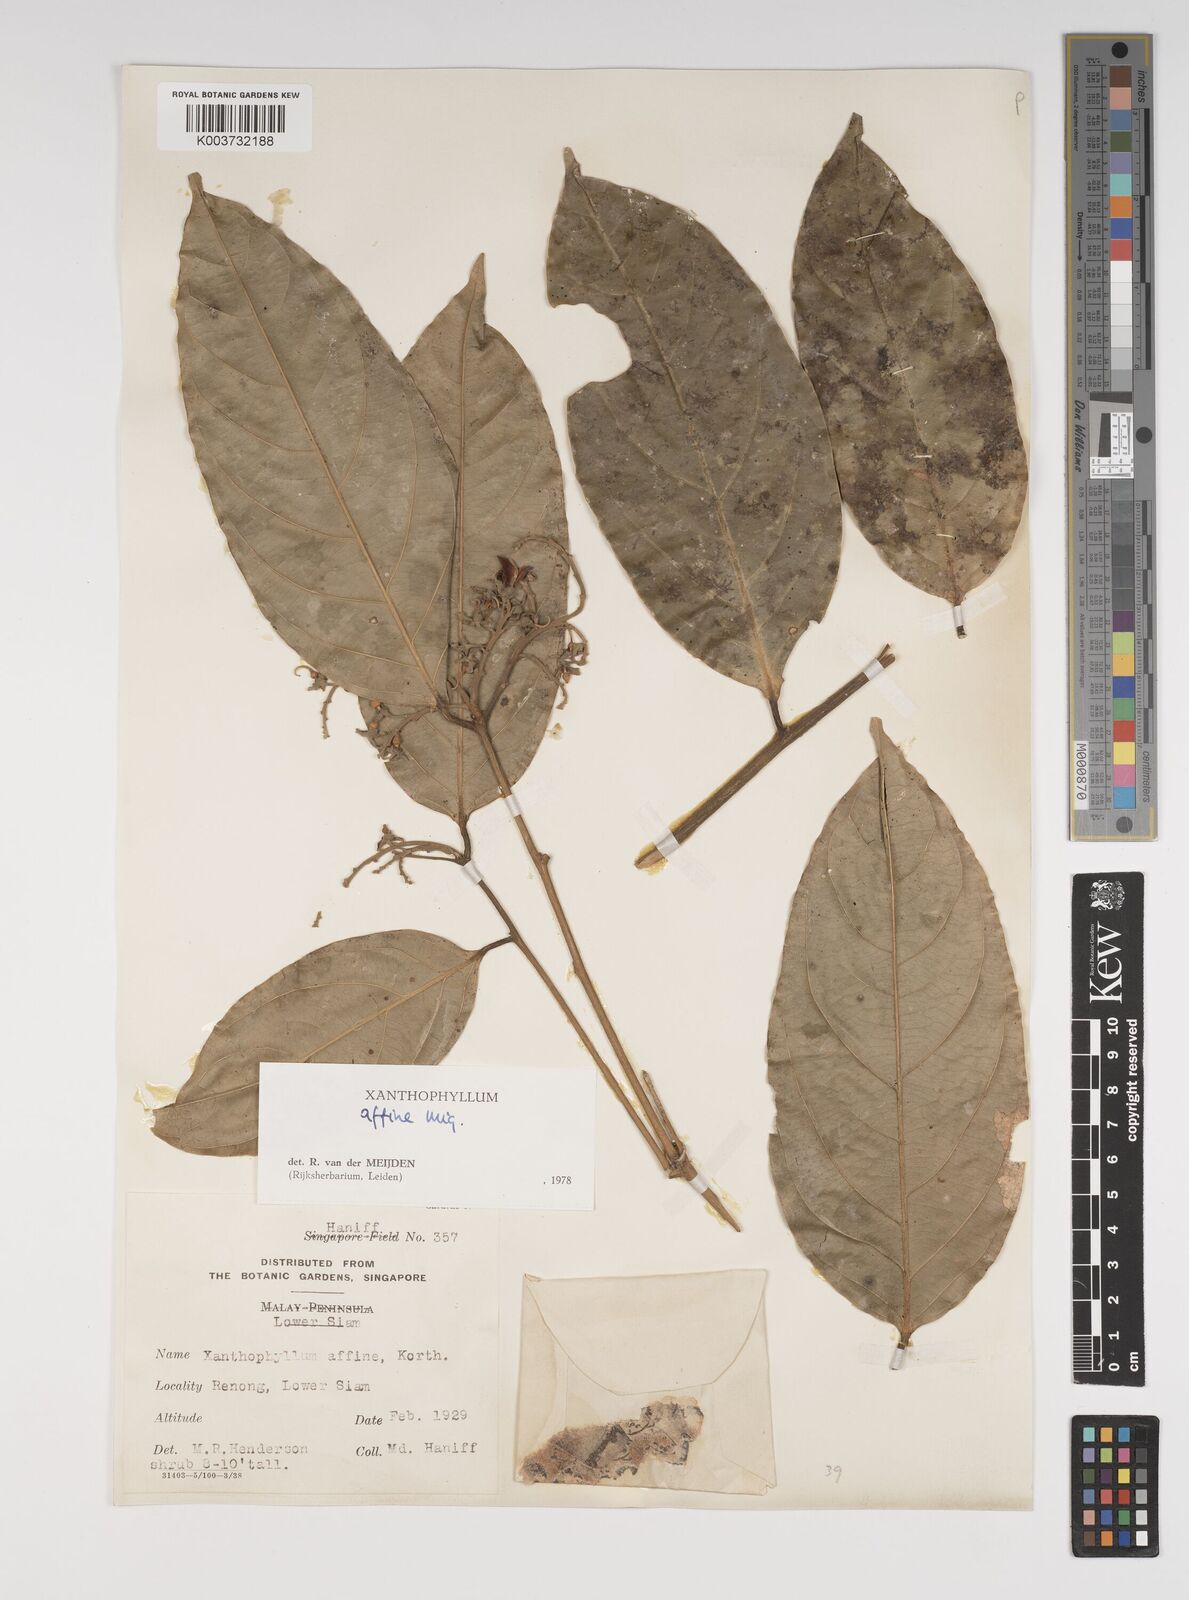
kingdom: Plantae
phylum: Tracheophyta
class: Magnoliopsida
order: Fabales
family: Polygalaceae
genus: Xanthophyllum
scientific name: Xanthophyllum flavescens
